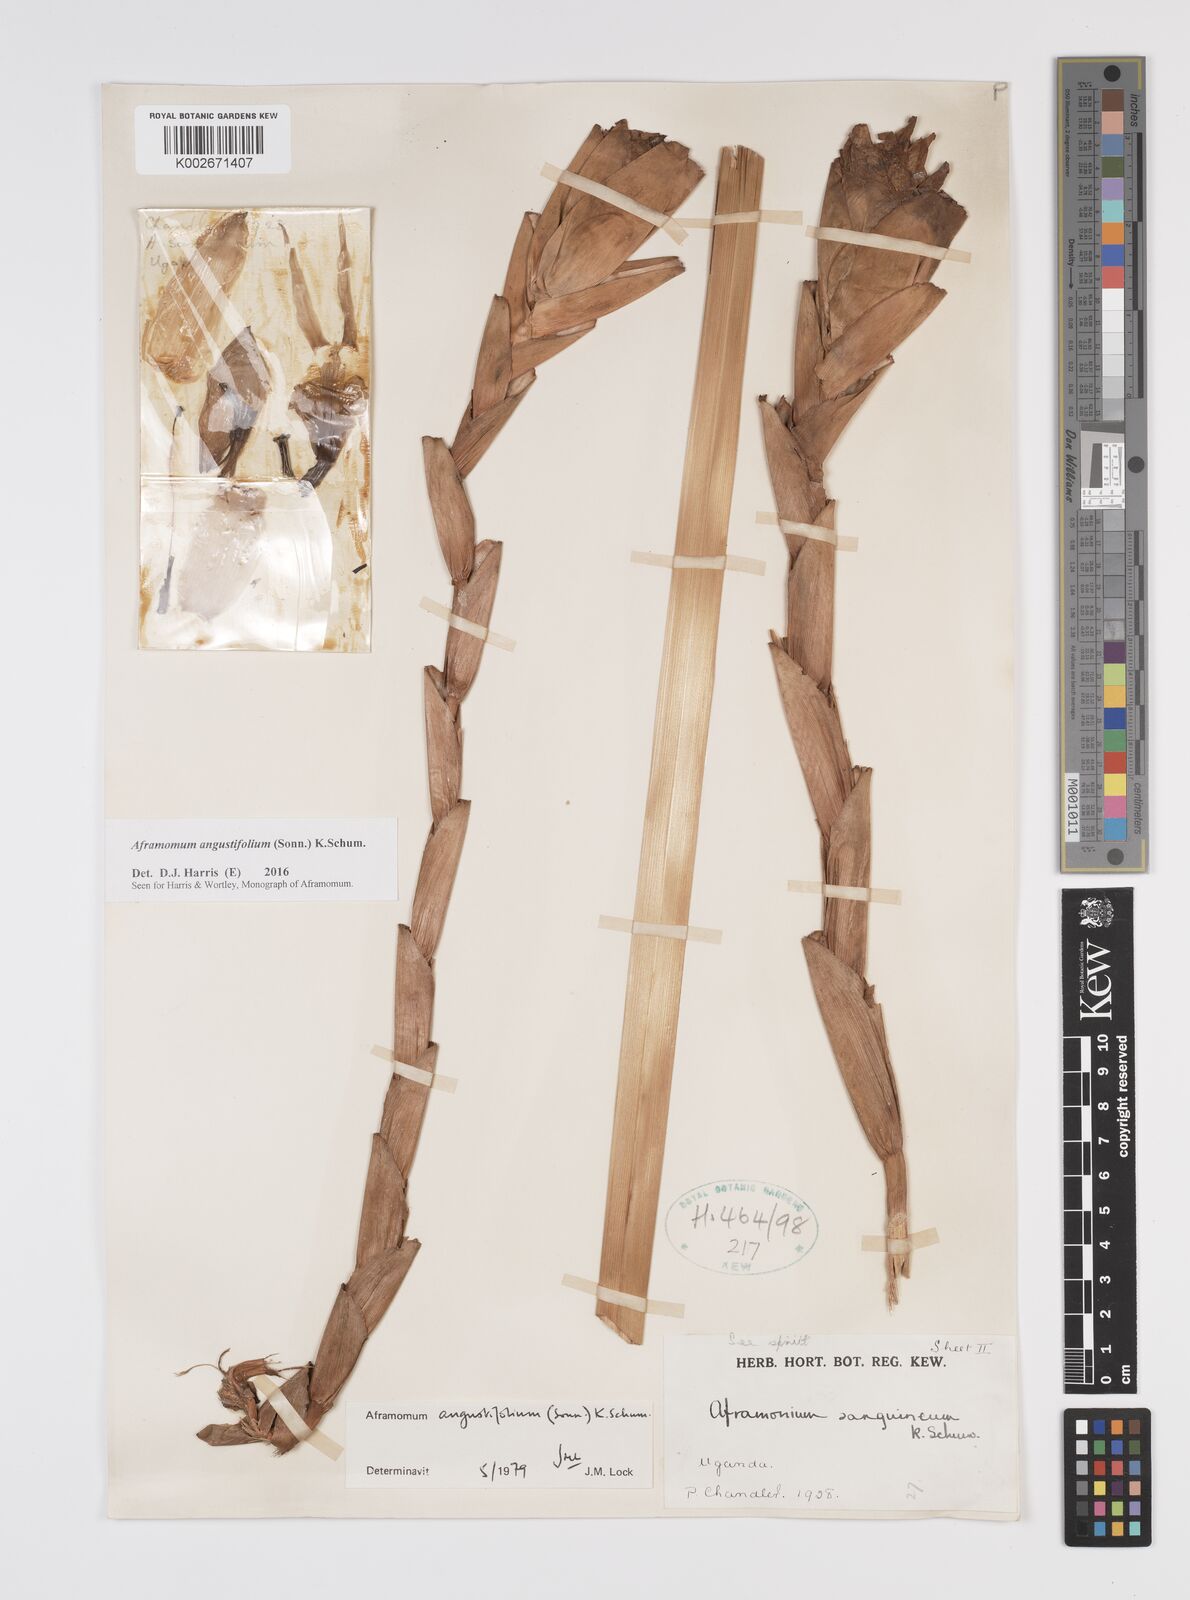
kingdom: Plantae
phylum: Tracheophyta
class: Liliopsida
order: Zingiberales
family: Zingiberaceae
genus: Aframomum
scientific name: Aframomum angustifolium
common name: Guinea grains
